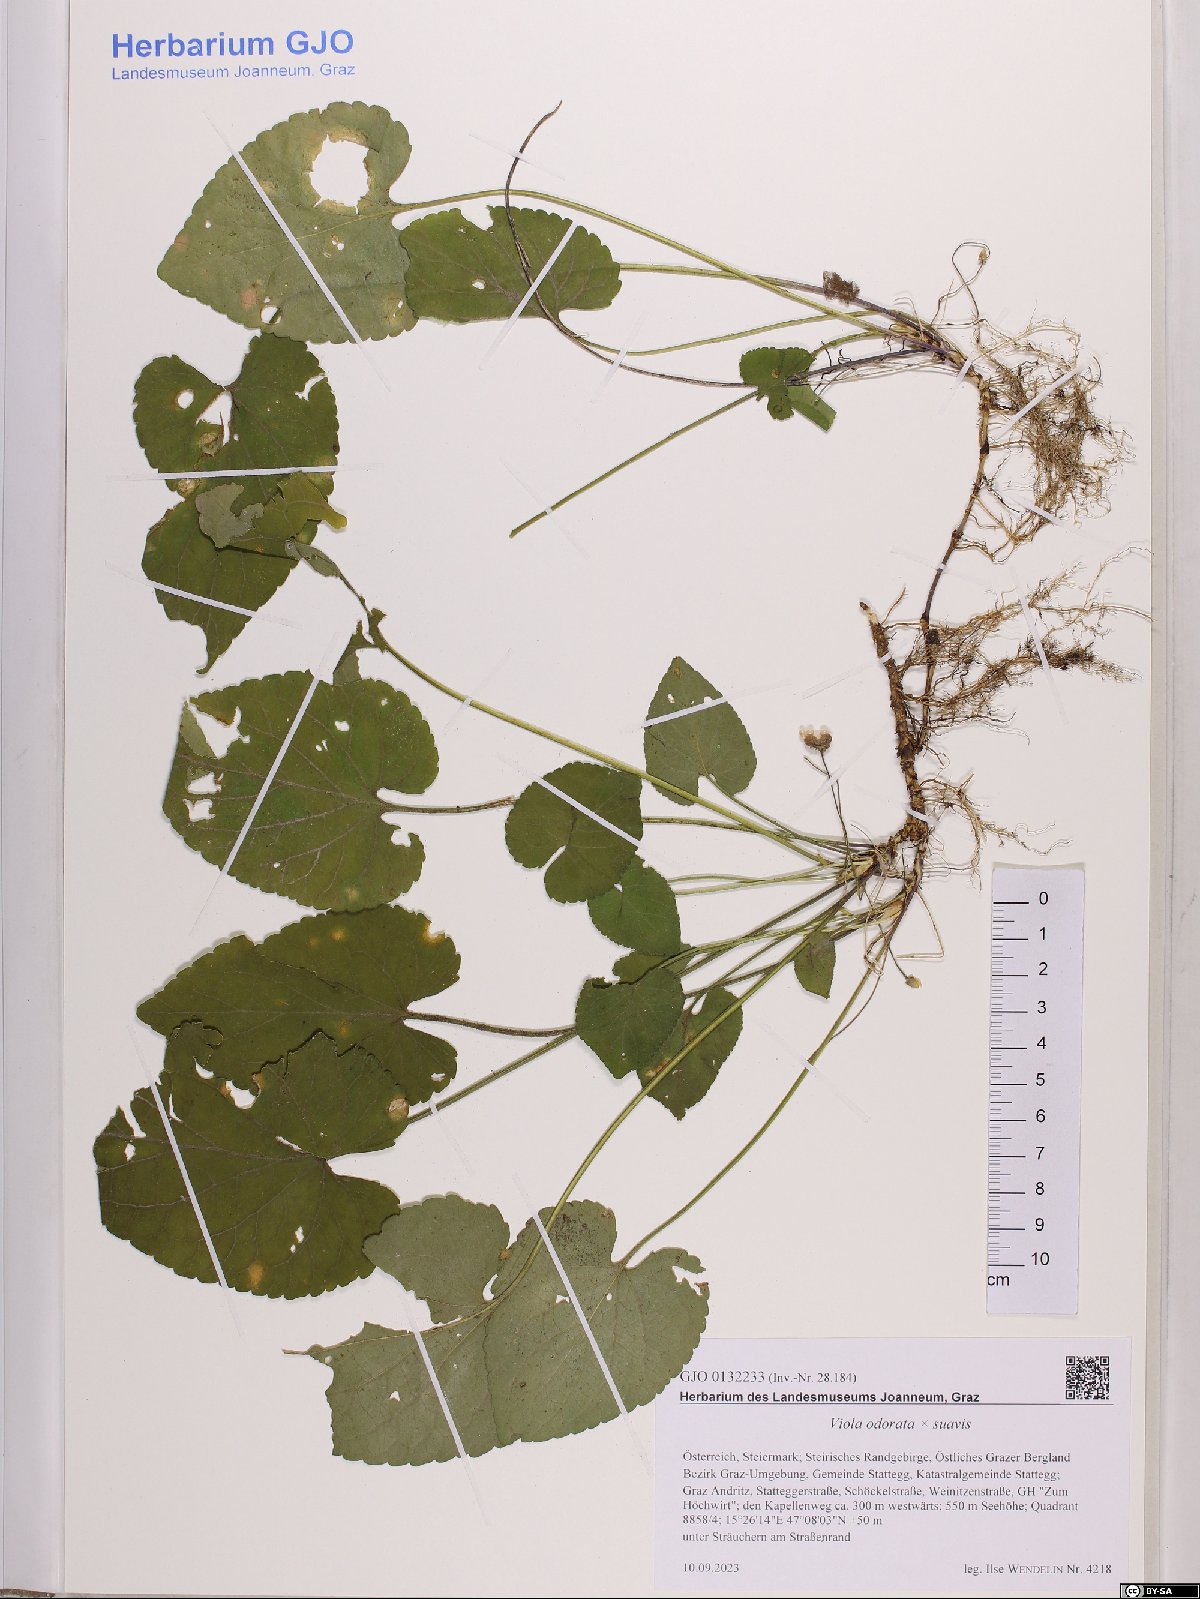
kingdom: Plantae
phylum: Tracheophyta
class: Magnoliopsida
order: Malpighiales
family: Violaceae
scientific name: Violaceae
